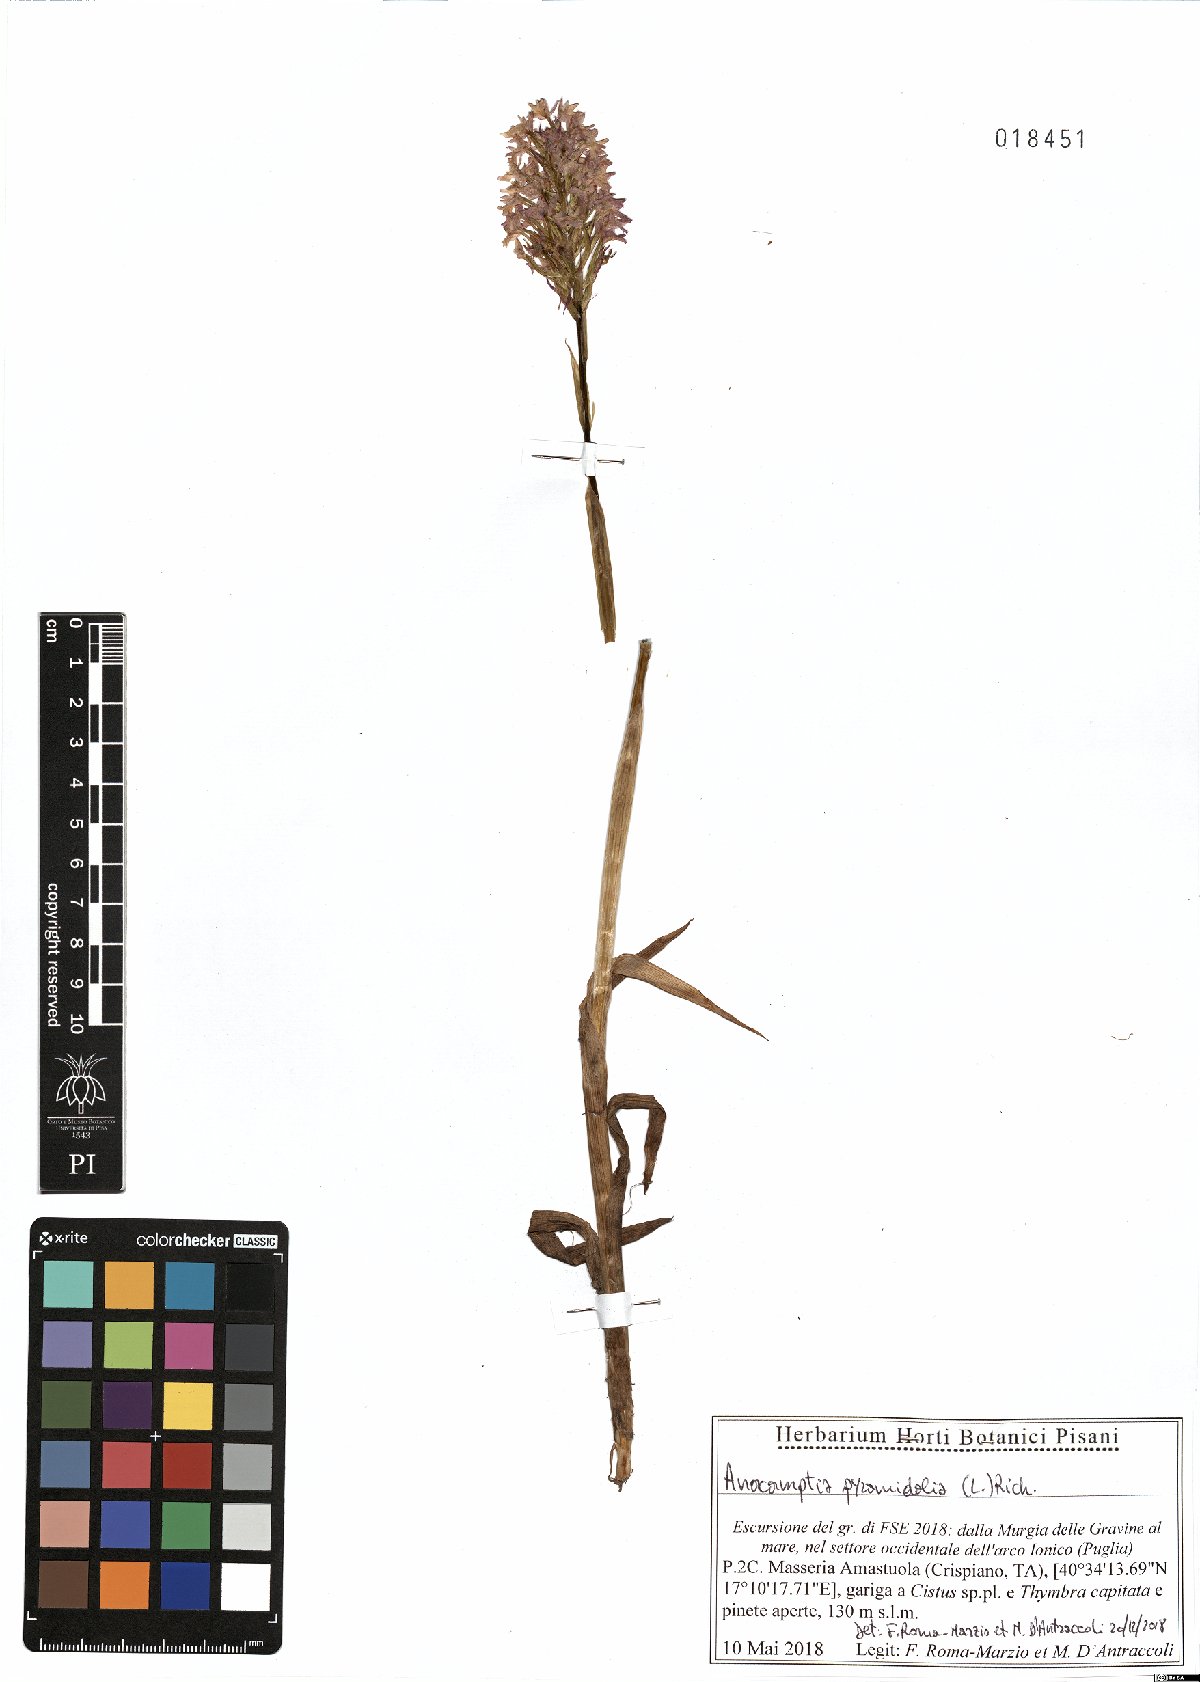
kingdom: Plantae
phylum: Tracheophyta
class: Liliopsida
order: Asparagales
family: Orchidaceae
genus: Anacamptis
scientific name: Anacamptis pyramidalis
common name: Pyramidal orchid
